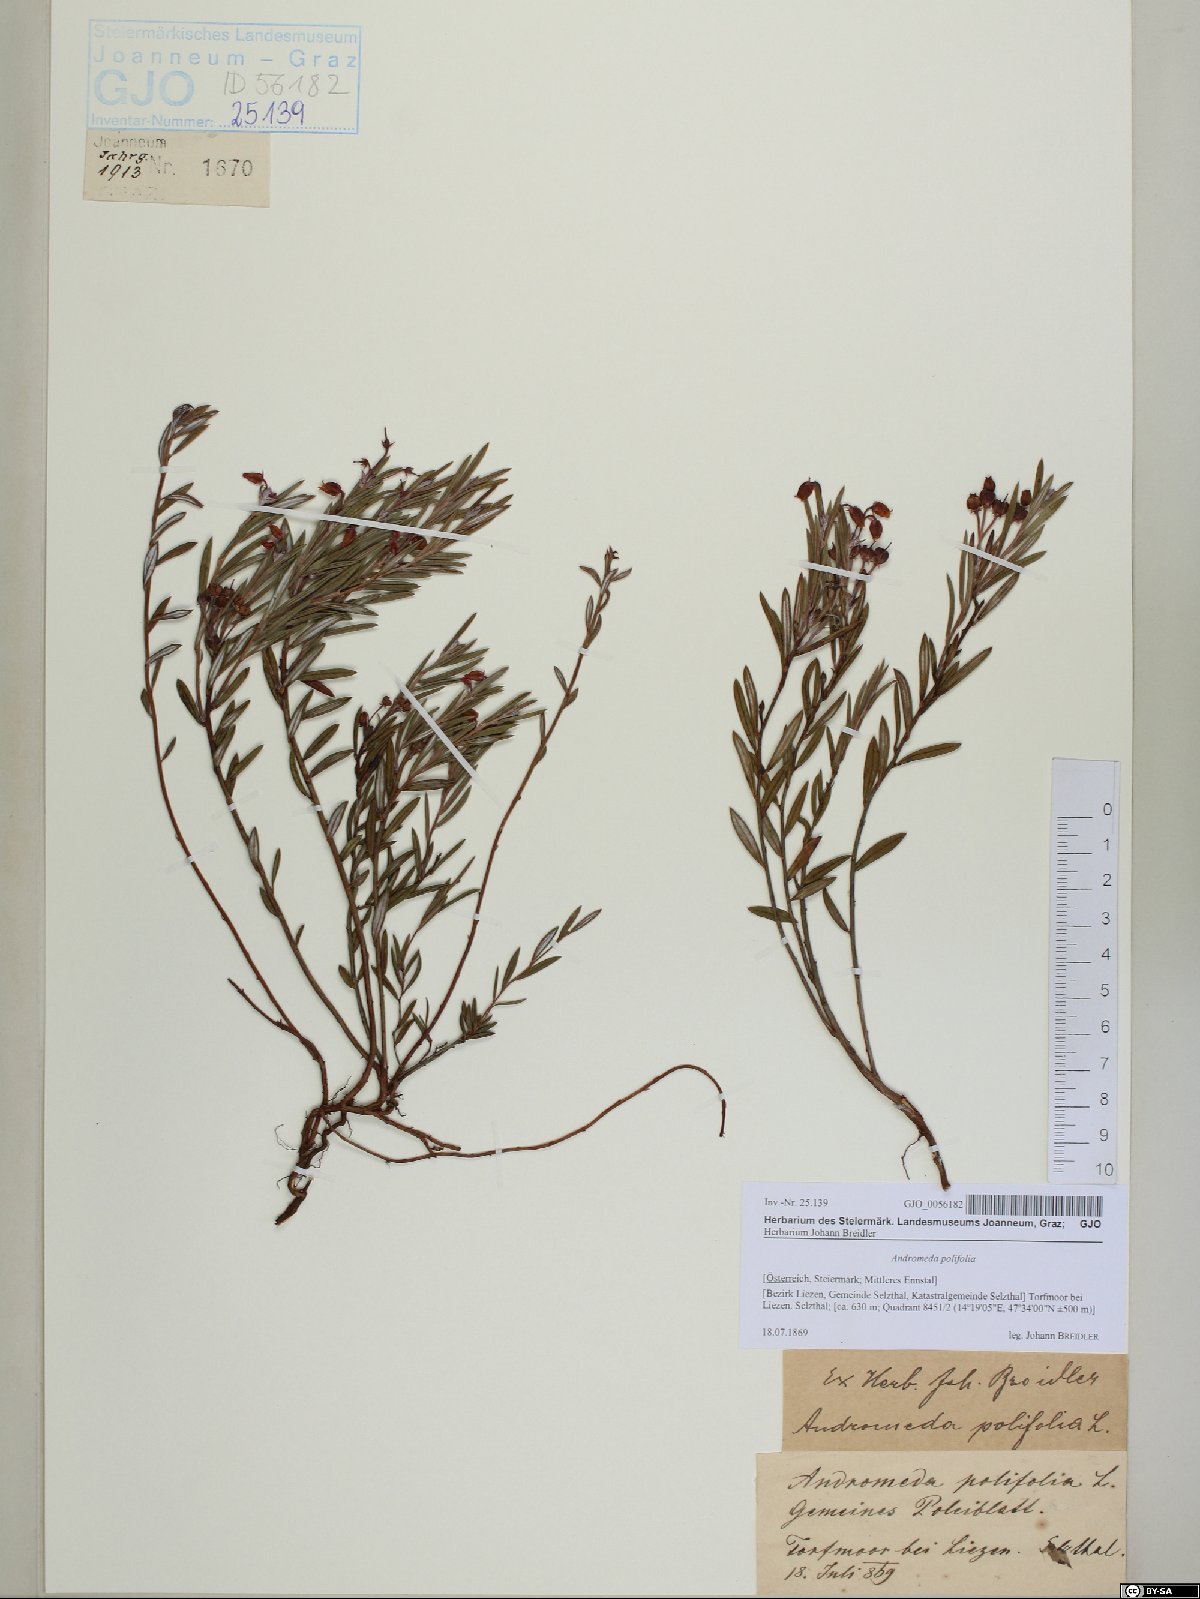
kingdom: Plantae
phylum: Tracheophyta
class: Magnoliopsida
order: Ericales
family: Ericaceae
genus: Andromeda
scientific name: Andromeda polifolia
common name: Bog-rosemary
